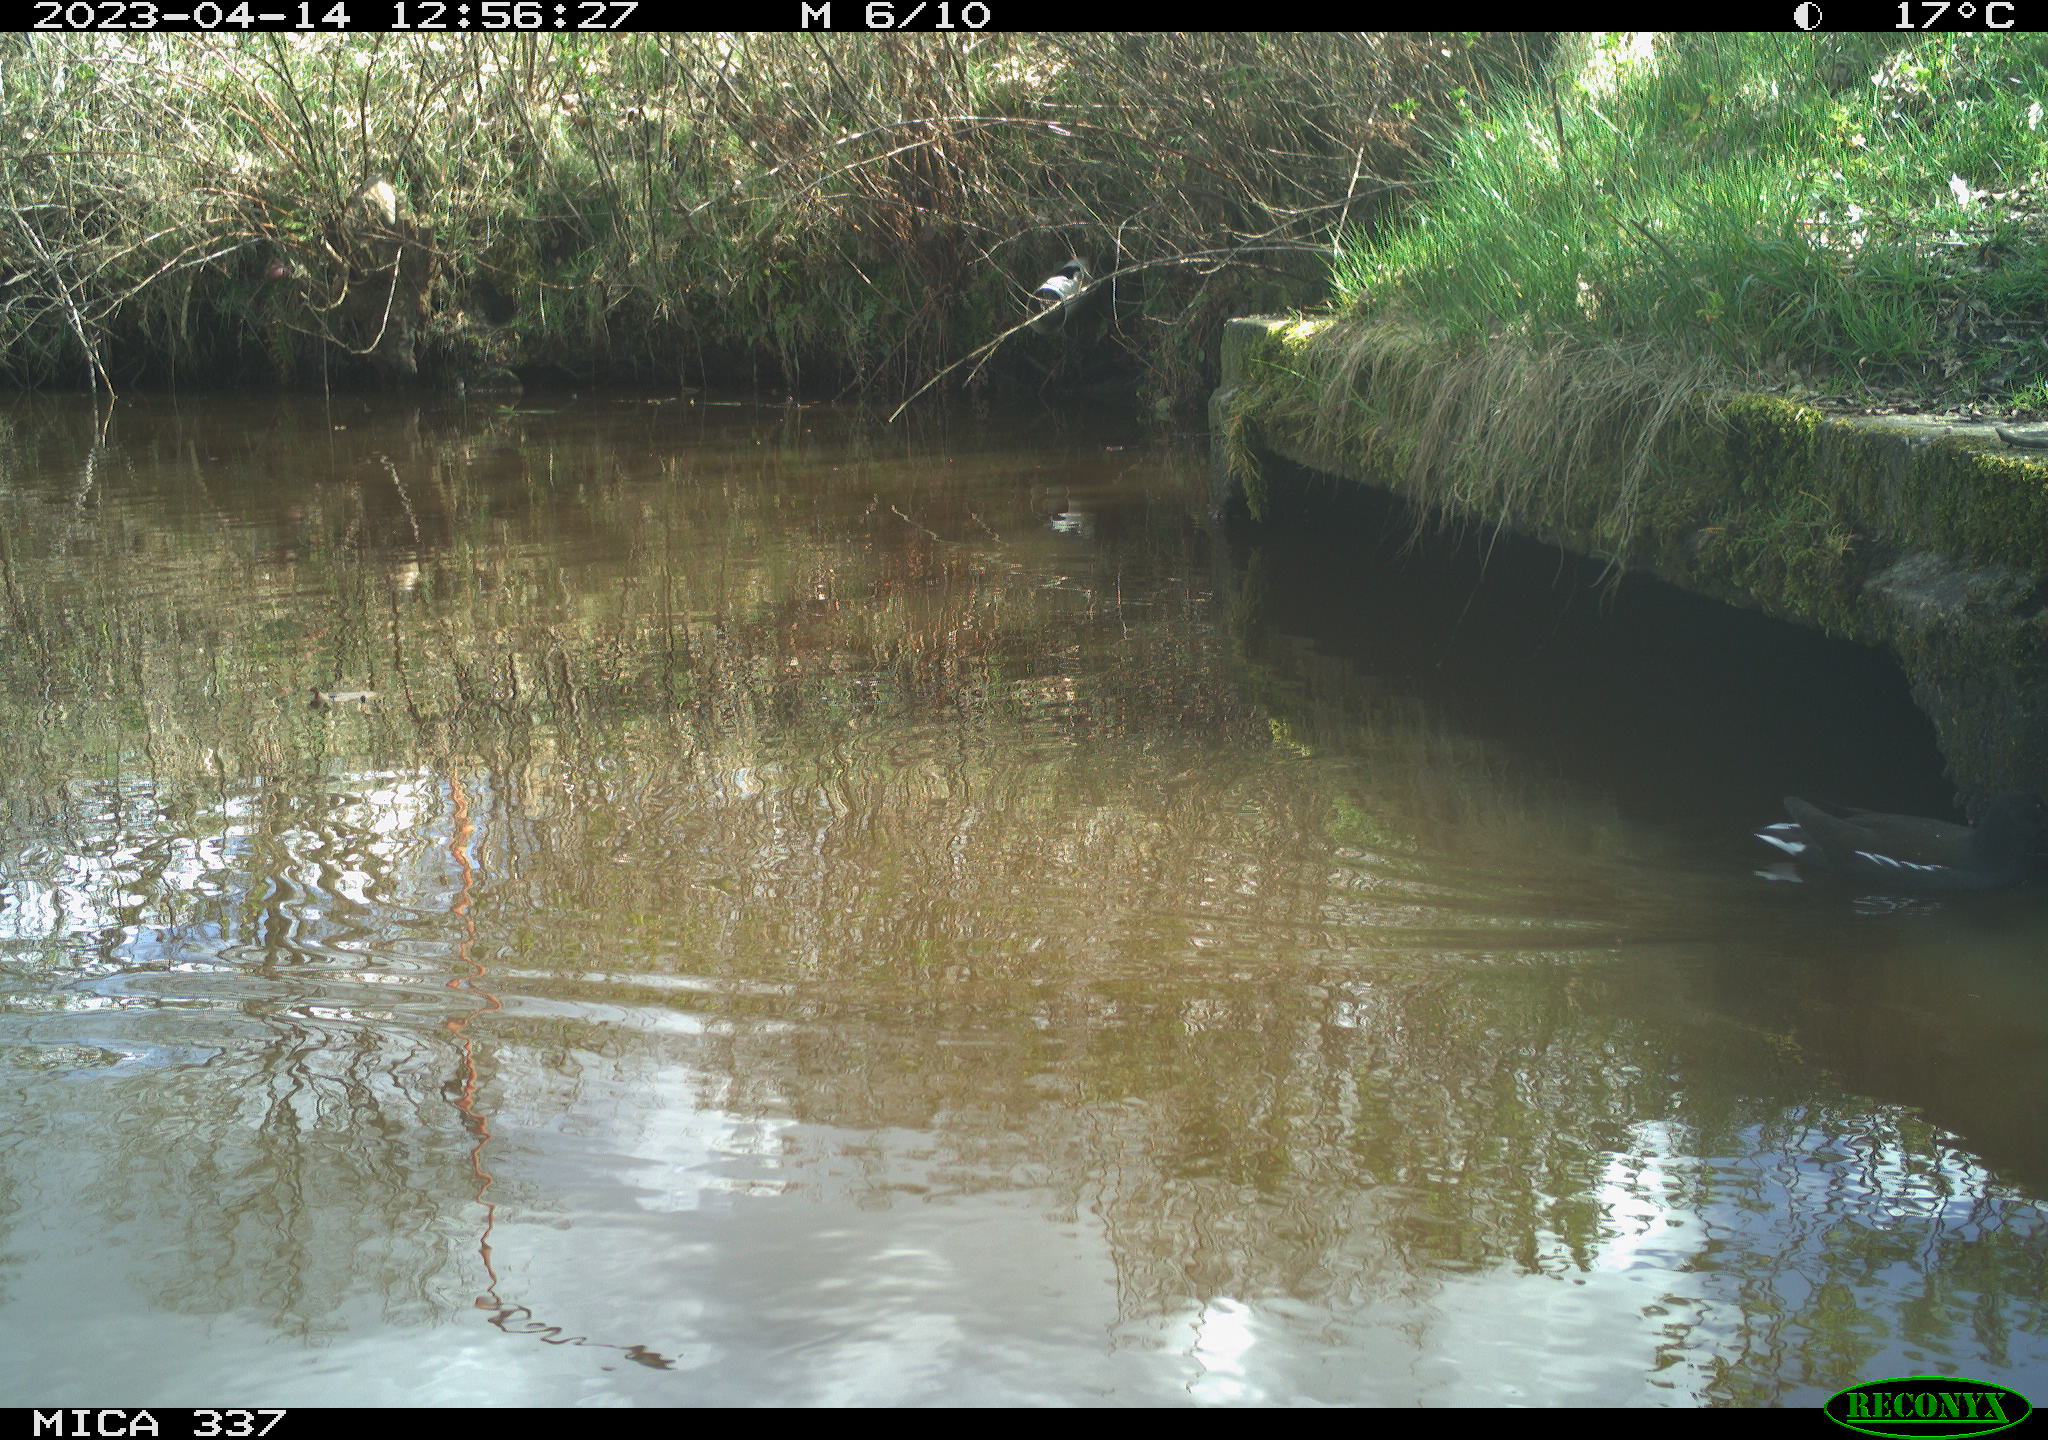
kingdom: Animalia
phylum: Chordata
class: Aves
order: Gruiformes
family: Rallidae
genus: Gallinula
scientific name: Gallinula chloropus
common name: Common moorhen
